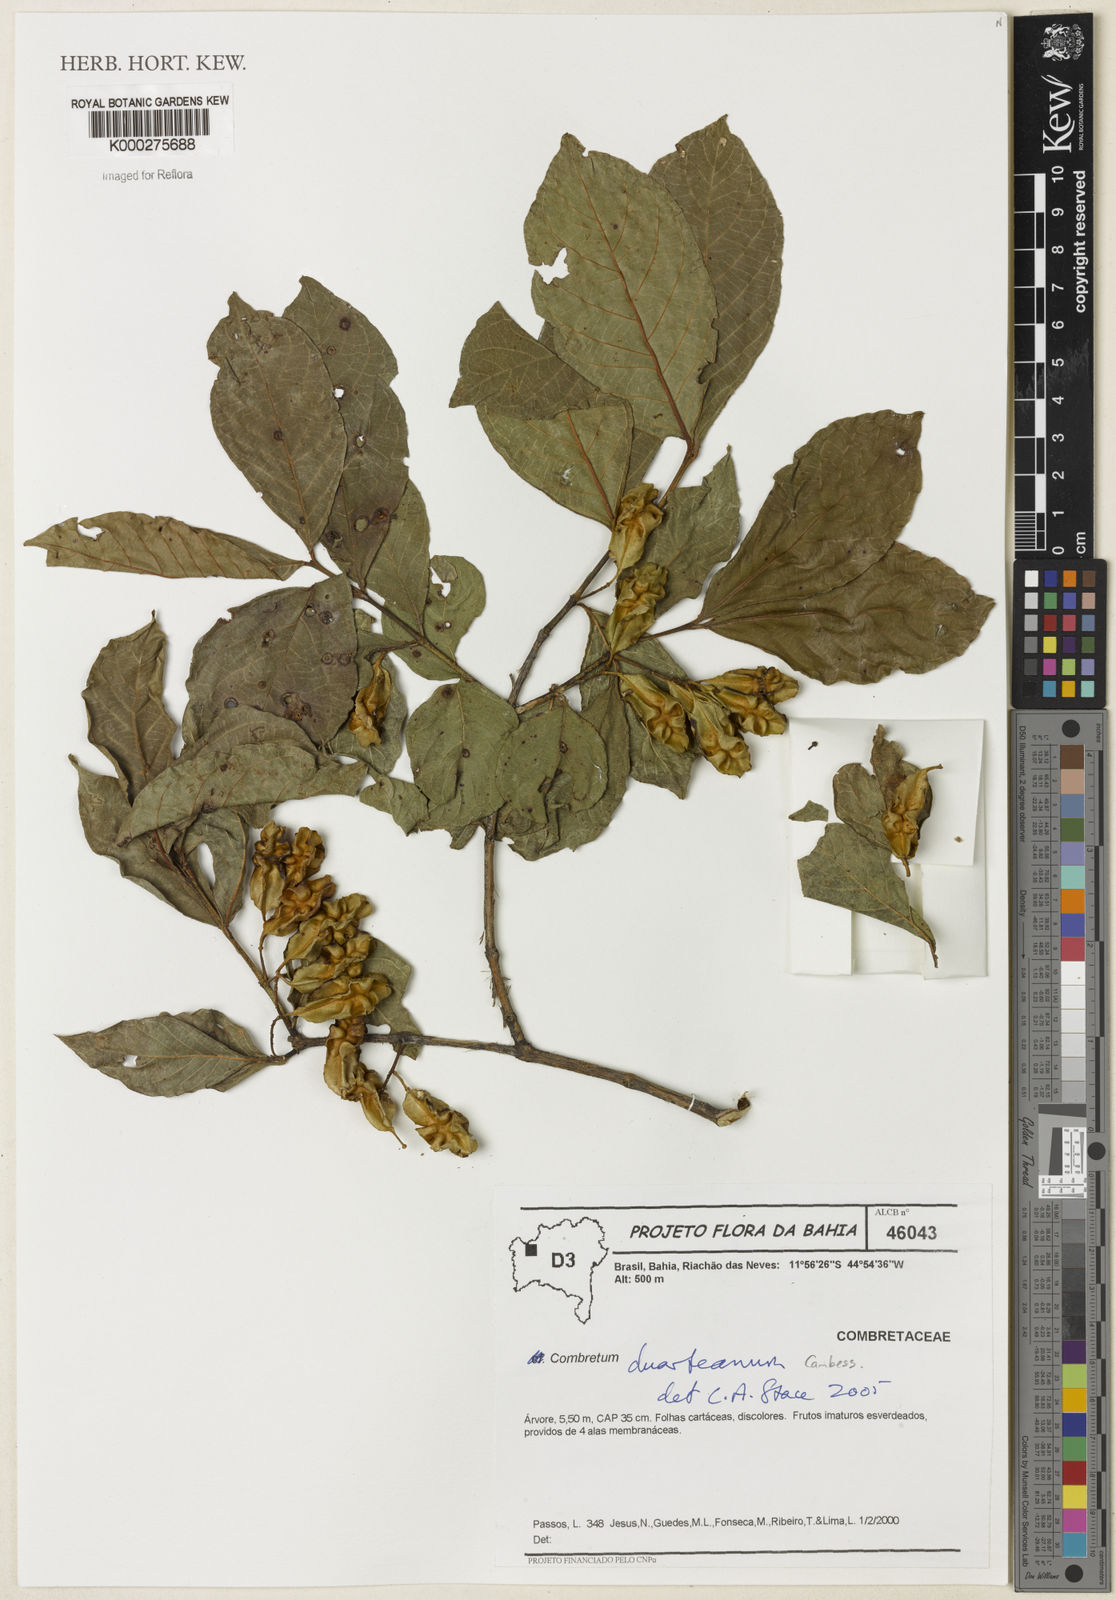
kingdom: Plantae
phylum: Tracheophyta
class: Magnoliopsida
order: Myrtales
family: Combretaceae
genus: Combretum
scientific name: Combretum duarteanum
